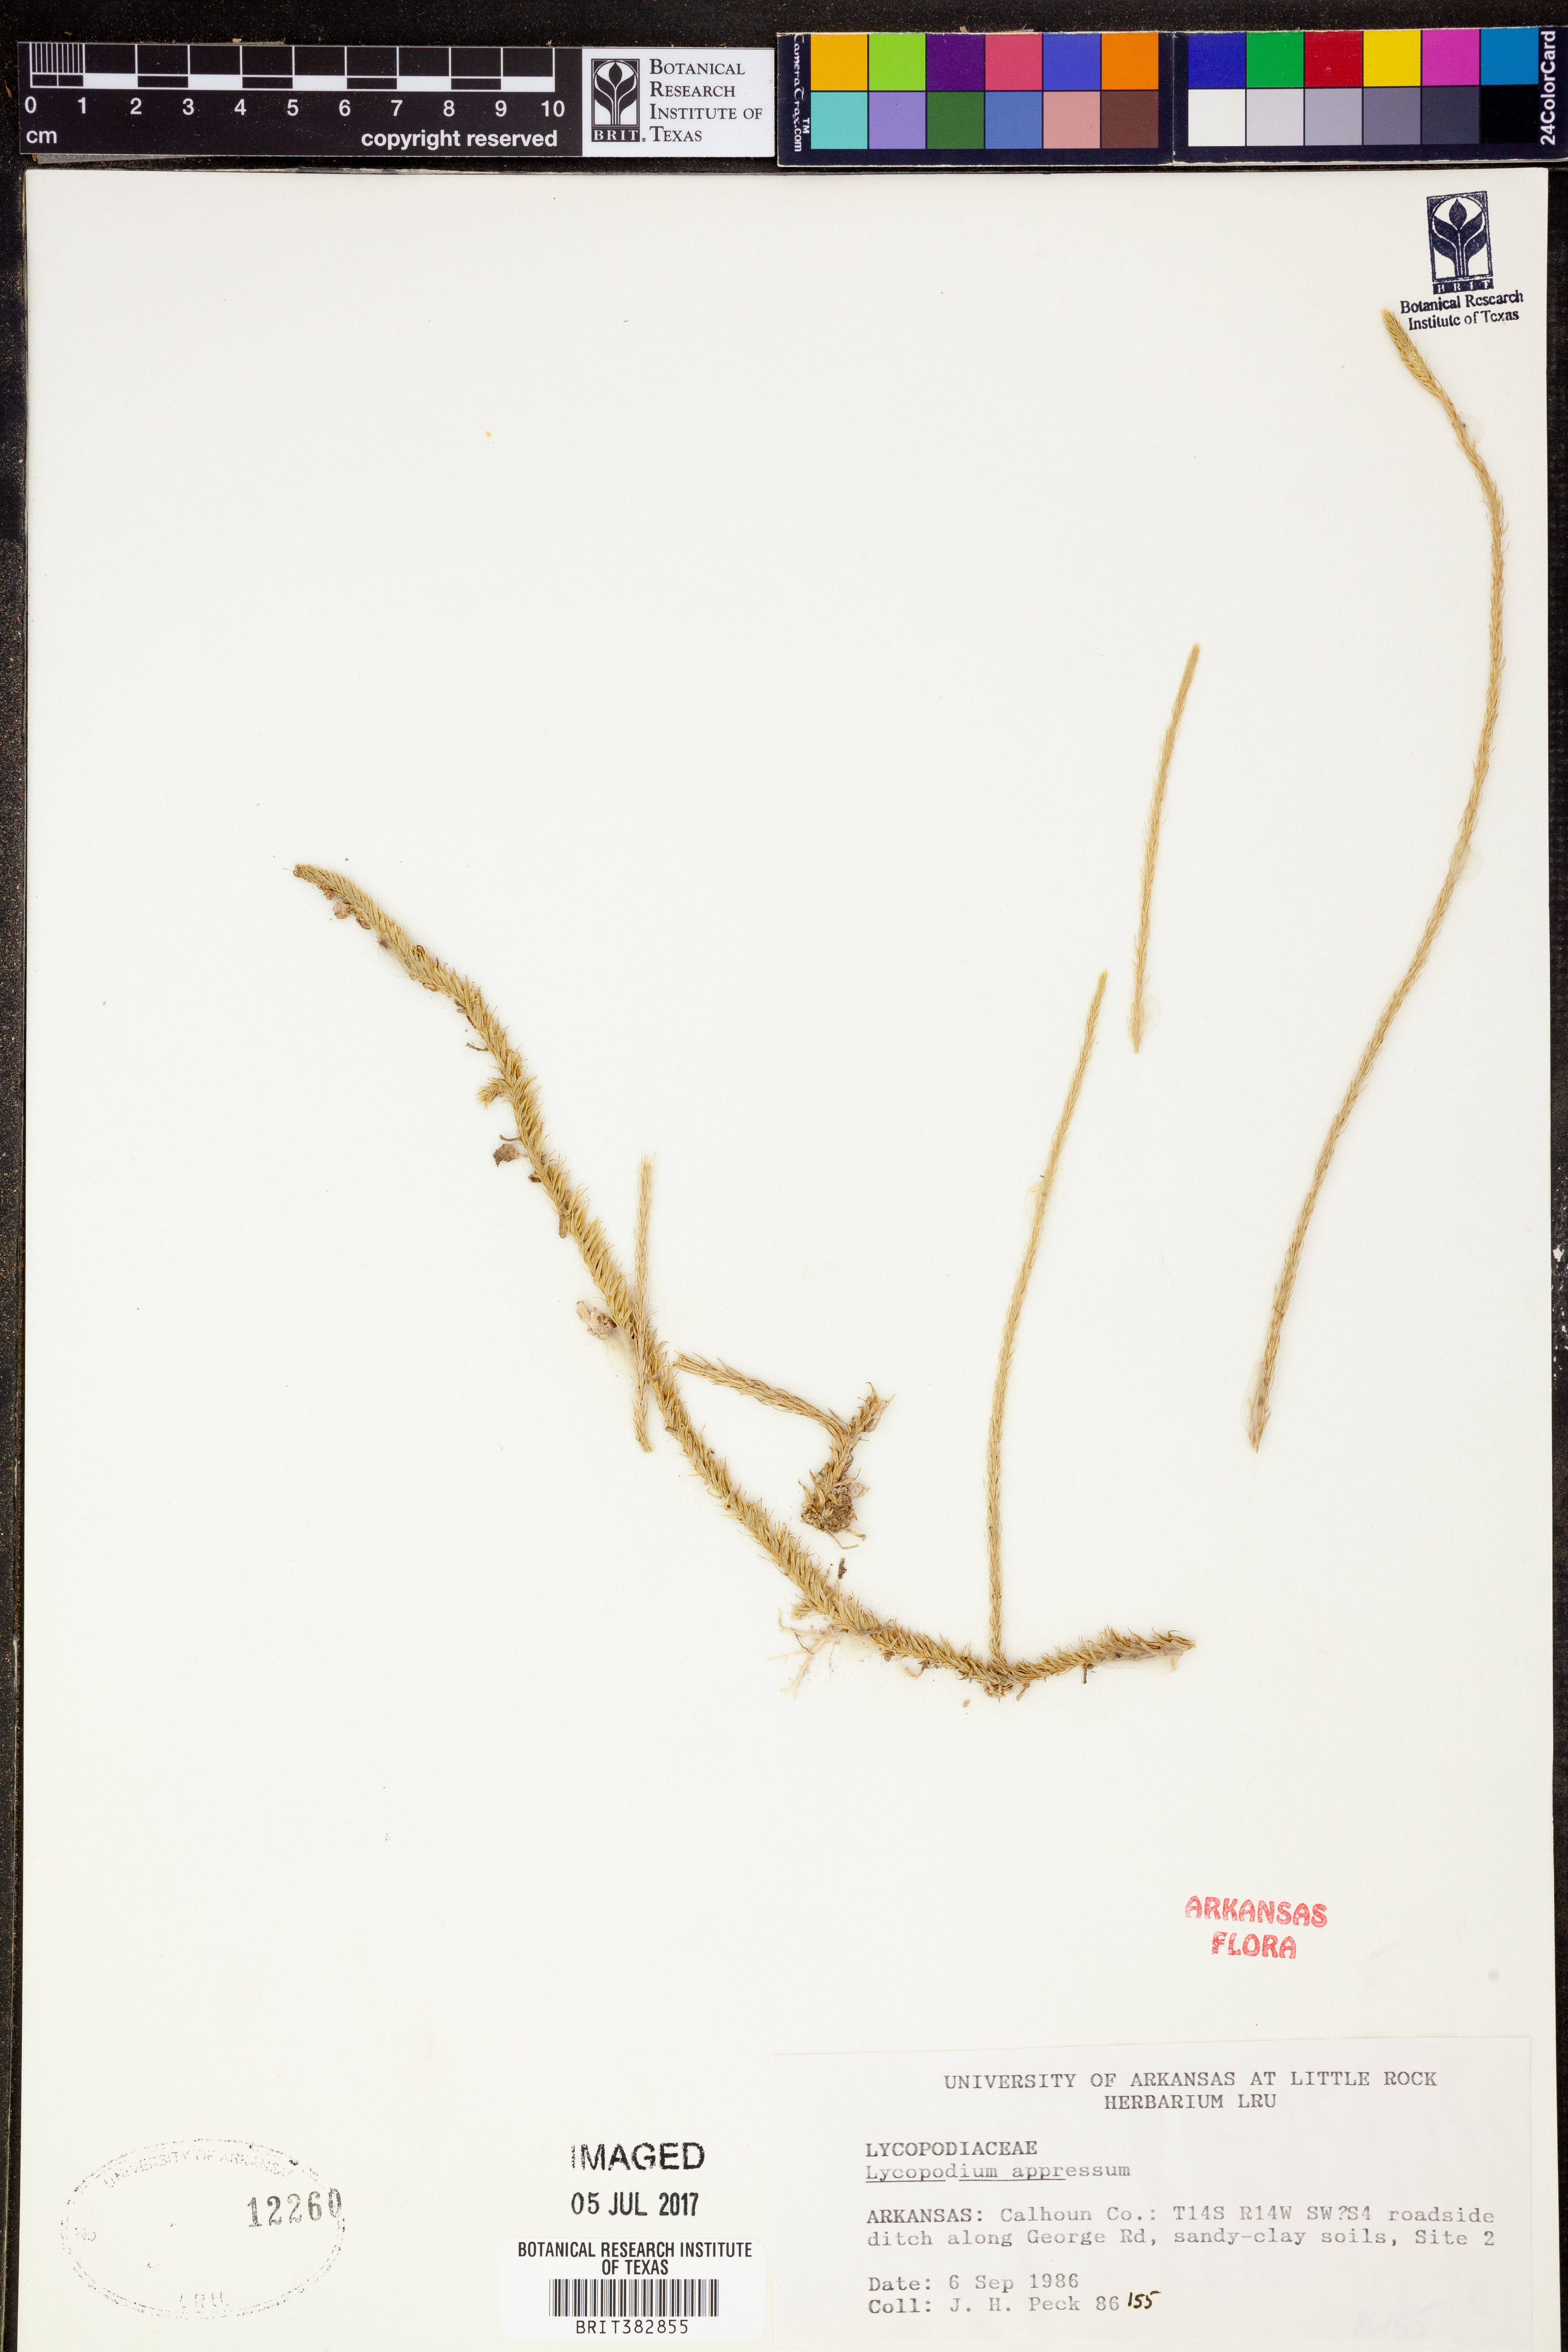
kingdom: Plantae
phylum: Tracheophyta
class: Lycopodiopsida
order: Lycopodiales
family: Lycopodiaceae
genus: Lycopodiella
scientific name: Lycopodiella appressa
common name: Appressed bog clubmoss
